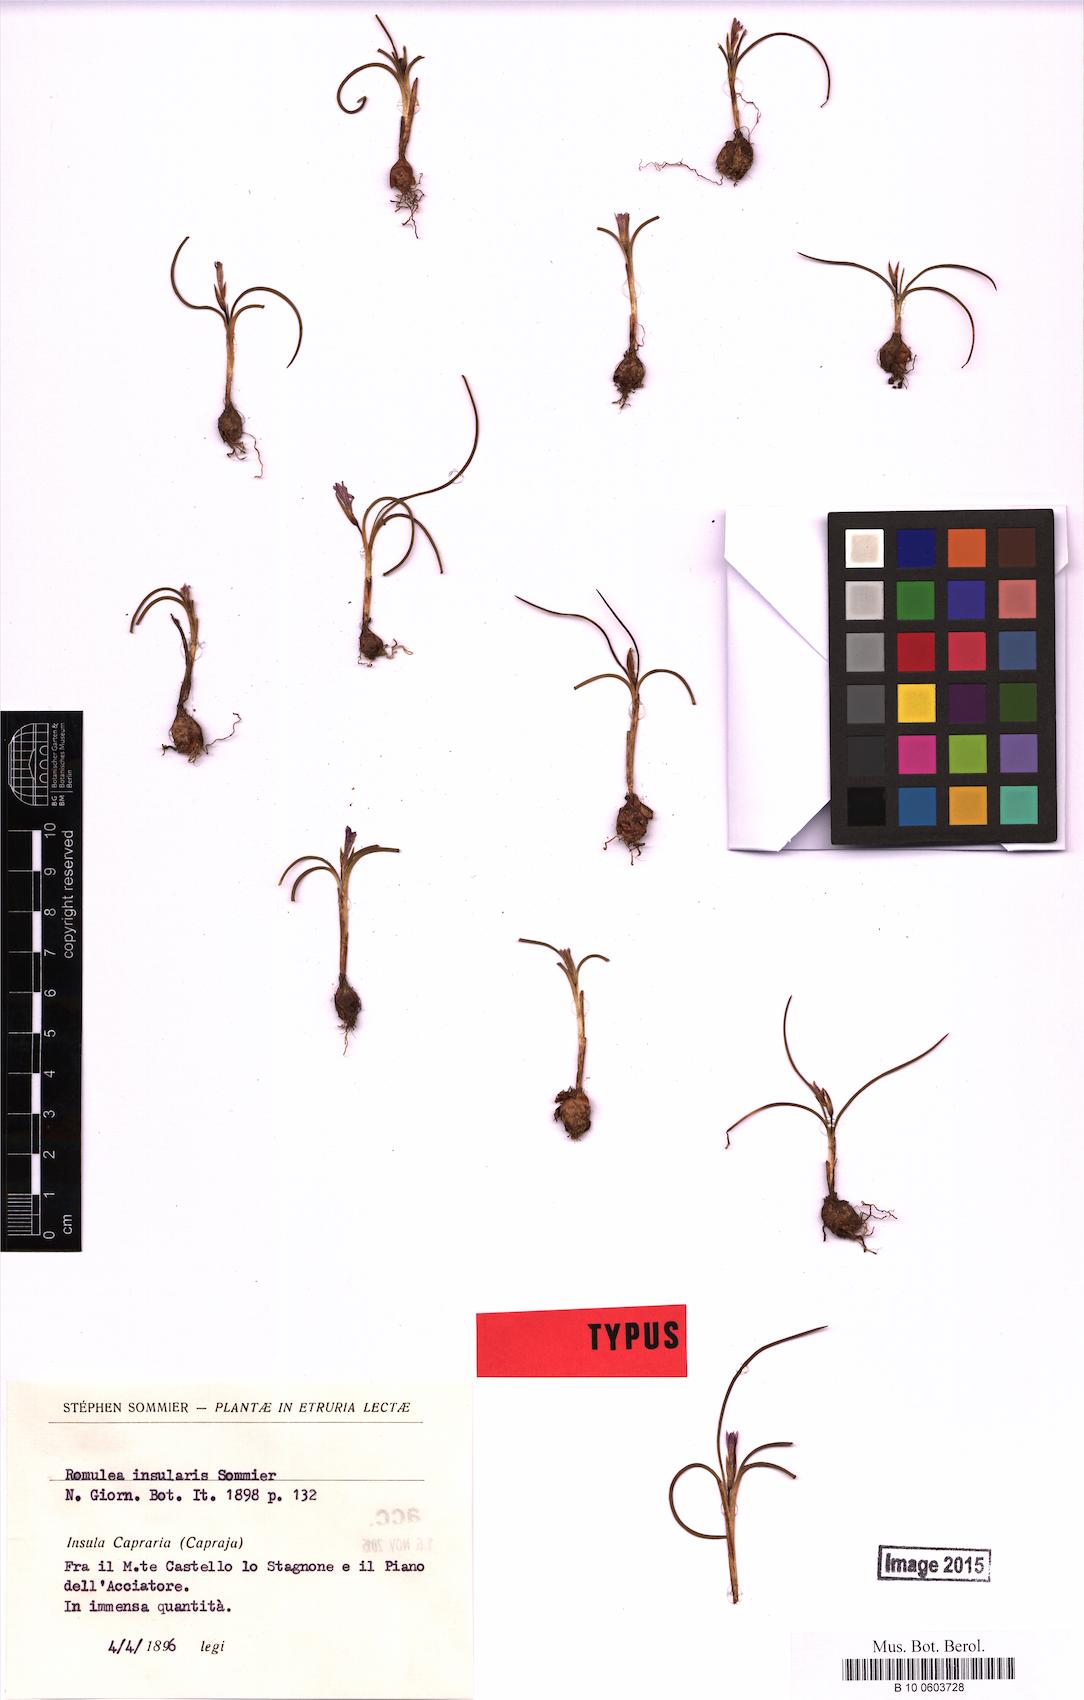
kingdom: Plantae
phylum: Tracheophyta
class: Liliopsida
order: Asparagales
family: Iridaceae
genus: Romulea
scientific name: Romulea insularis
